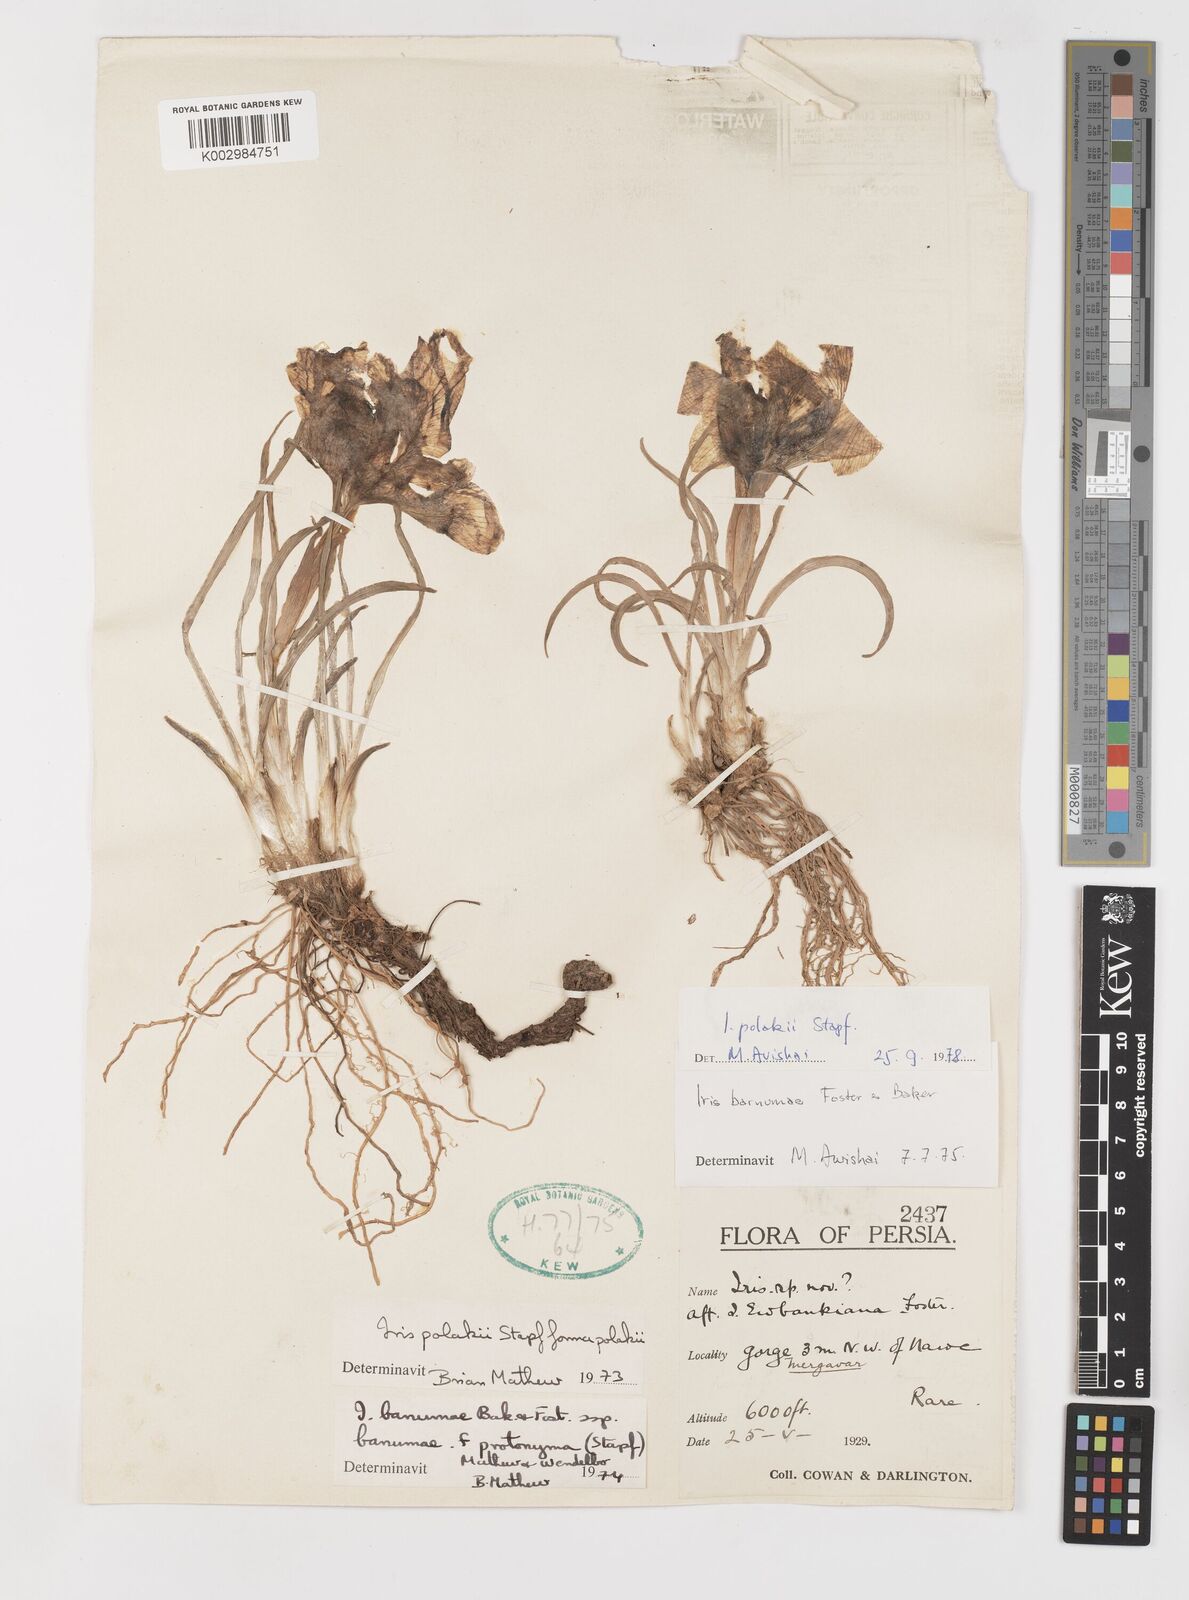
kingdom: Plantae
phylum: Tracheophyta
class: Liliopsida
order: Asparagales
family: Iridaceae
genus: Iris
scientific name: Iris polakii
